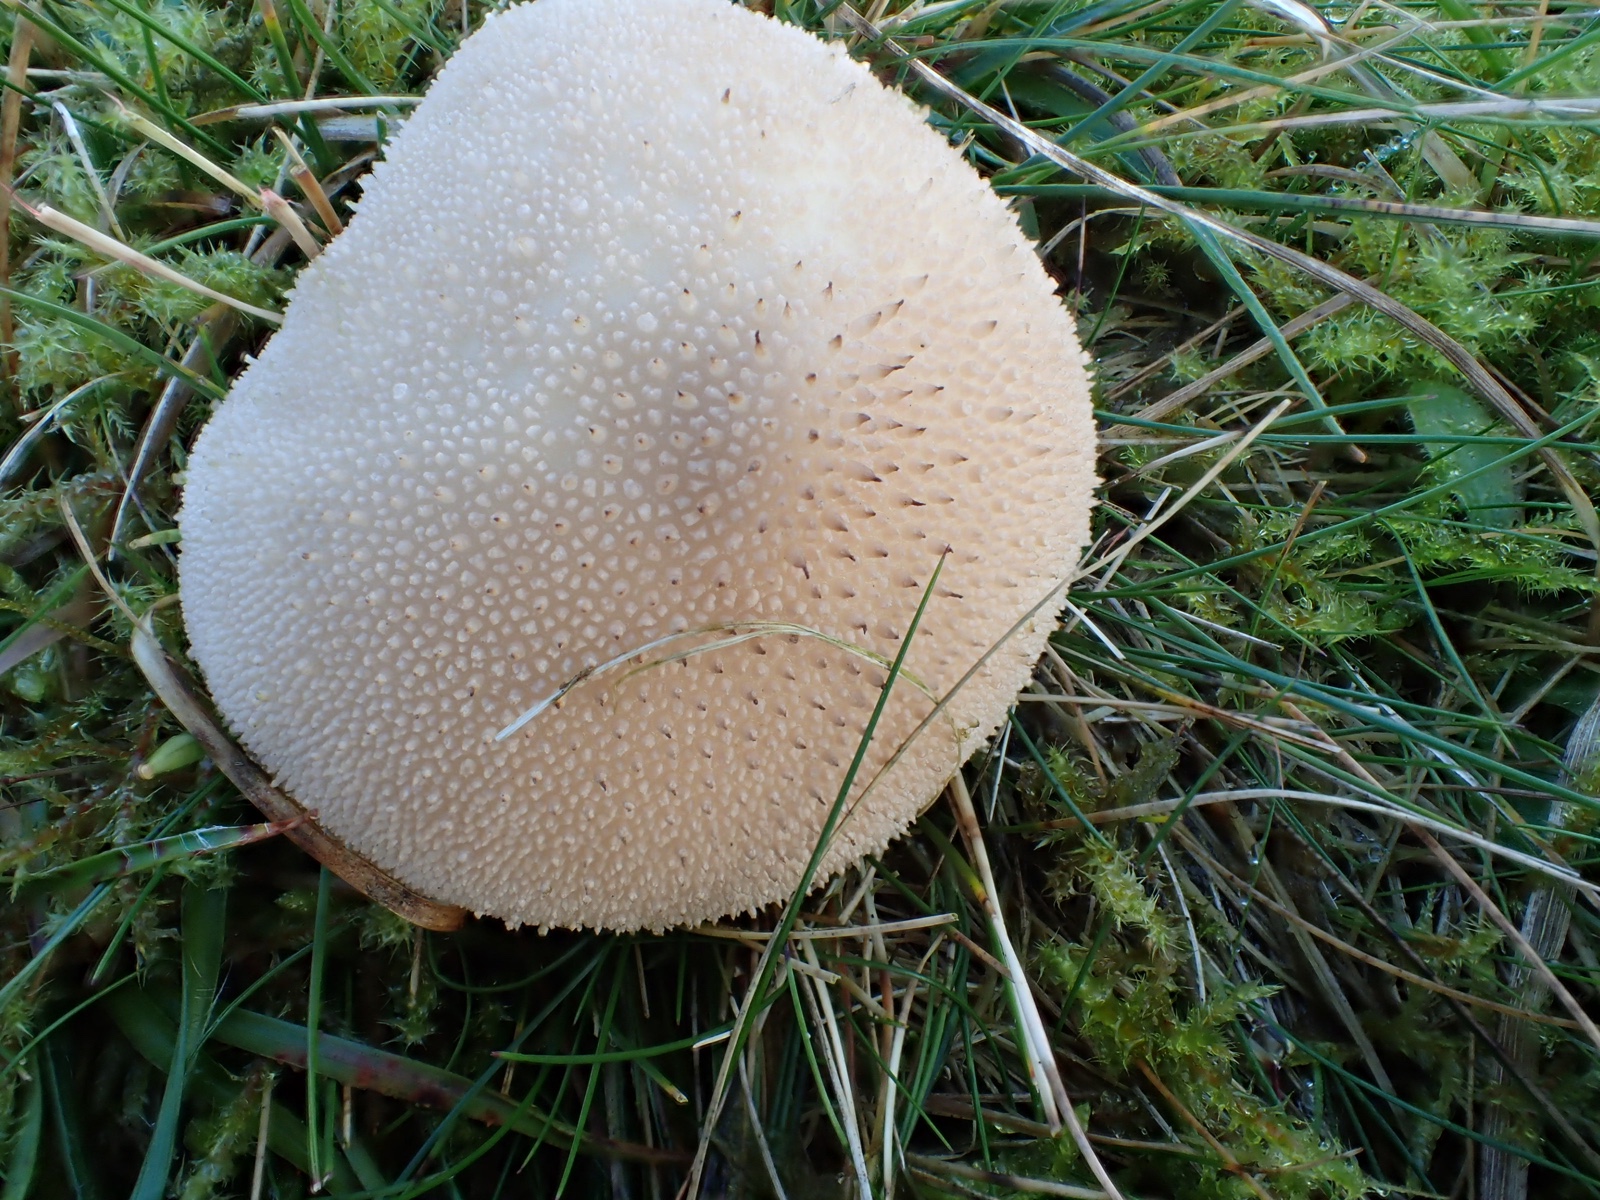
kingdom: Fungi
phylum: Basidiomycota
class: Agaricomycetes
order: Agaricales
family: Lycoperdaceae
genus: Lycoperdon
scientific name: Lycoperdon perlatum
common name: krystal-støvbold
